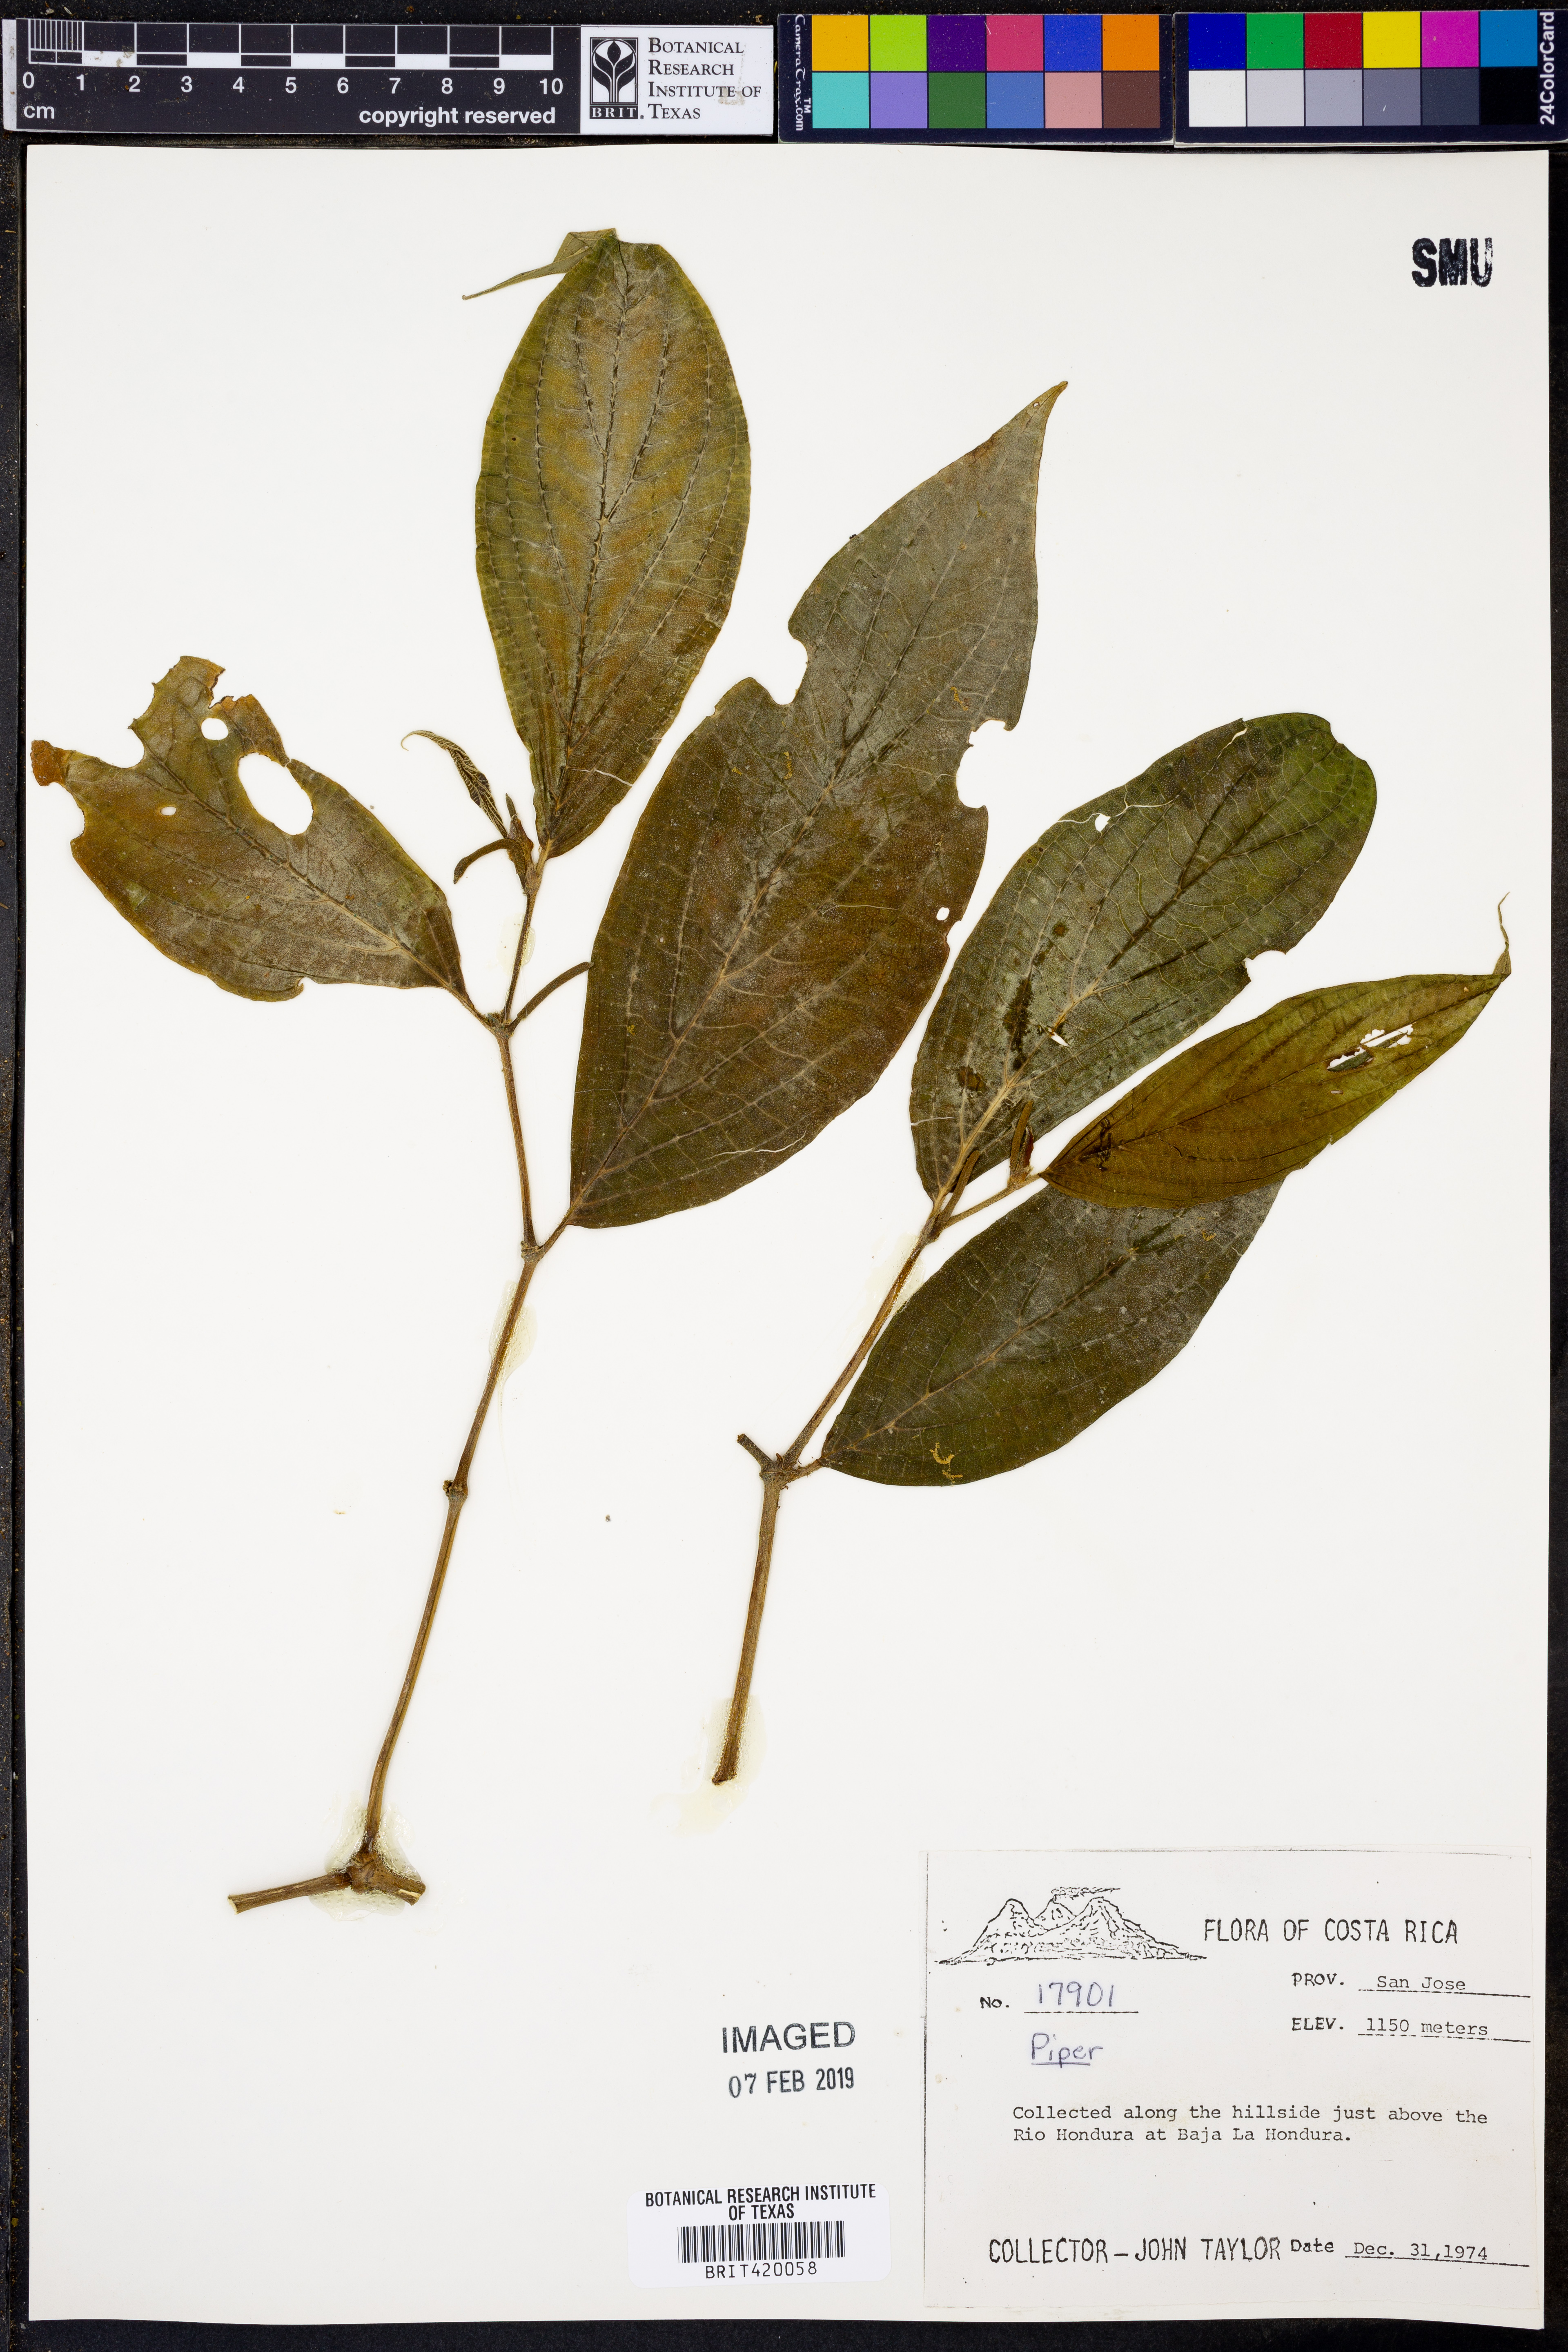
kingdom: Plantae
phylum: Tracheophyta
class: Magnoliopsida
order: Piperales
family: Piperaceae
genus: Piper
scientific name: Piper
